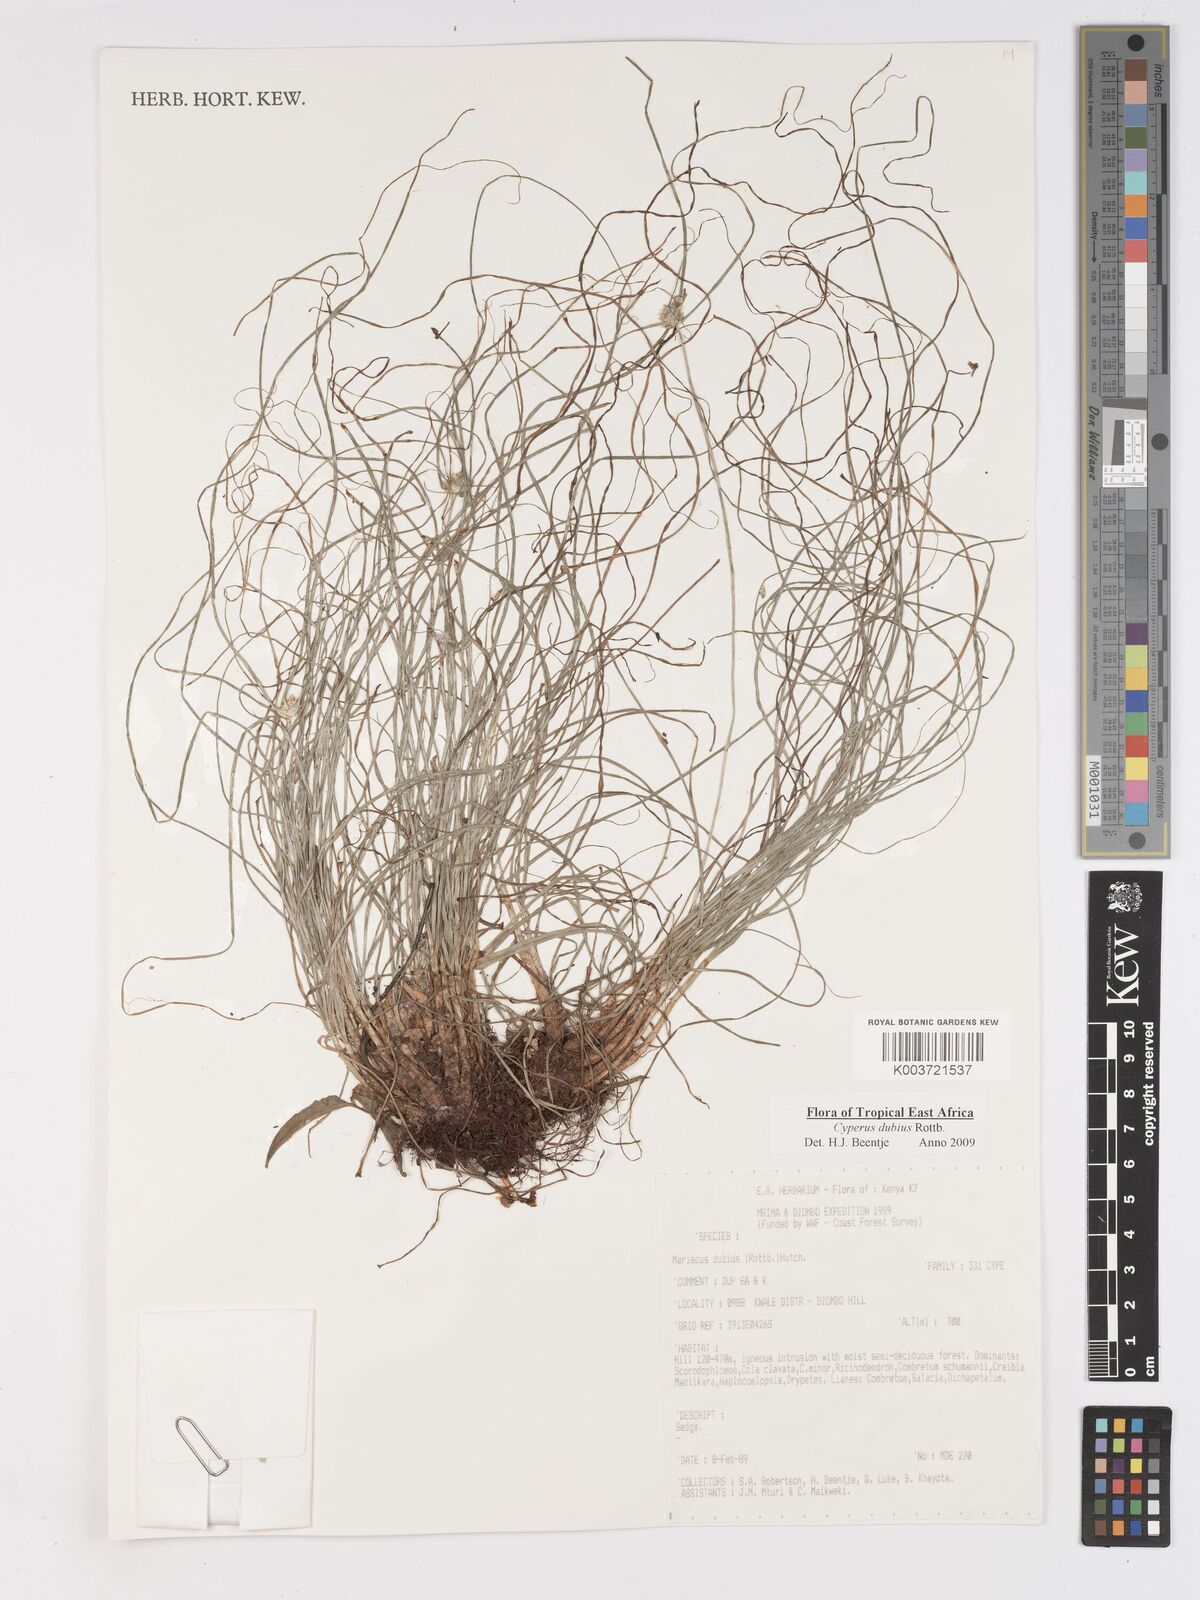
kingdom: Plantae
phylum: Tracheophyta
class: Liliopsida
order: Poales
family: Cyperaceae
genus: Cyperus
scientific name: Cyperus dubius
